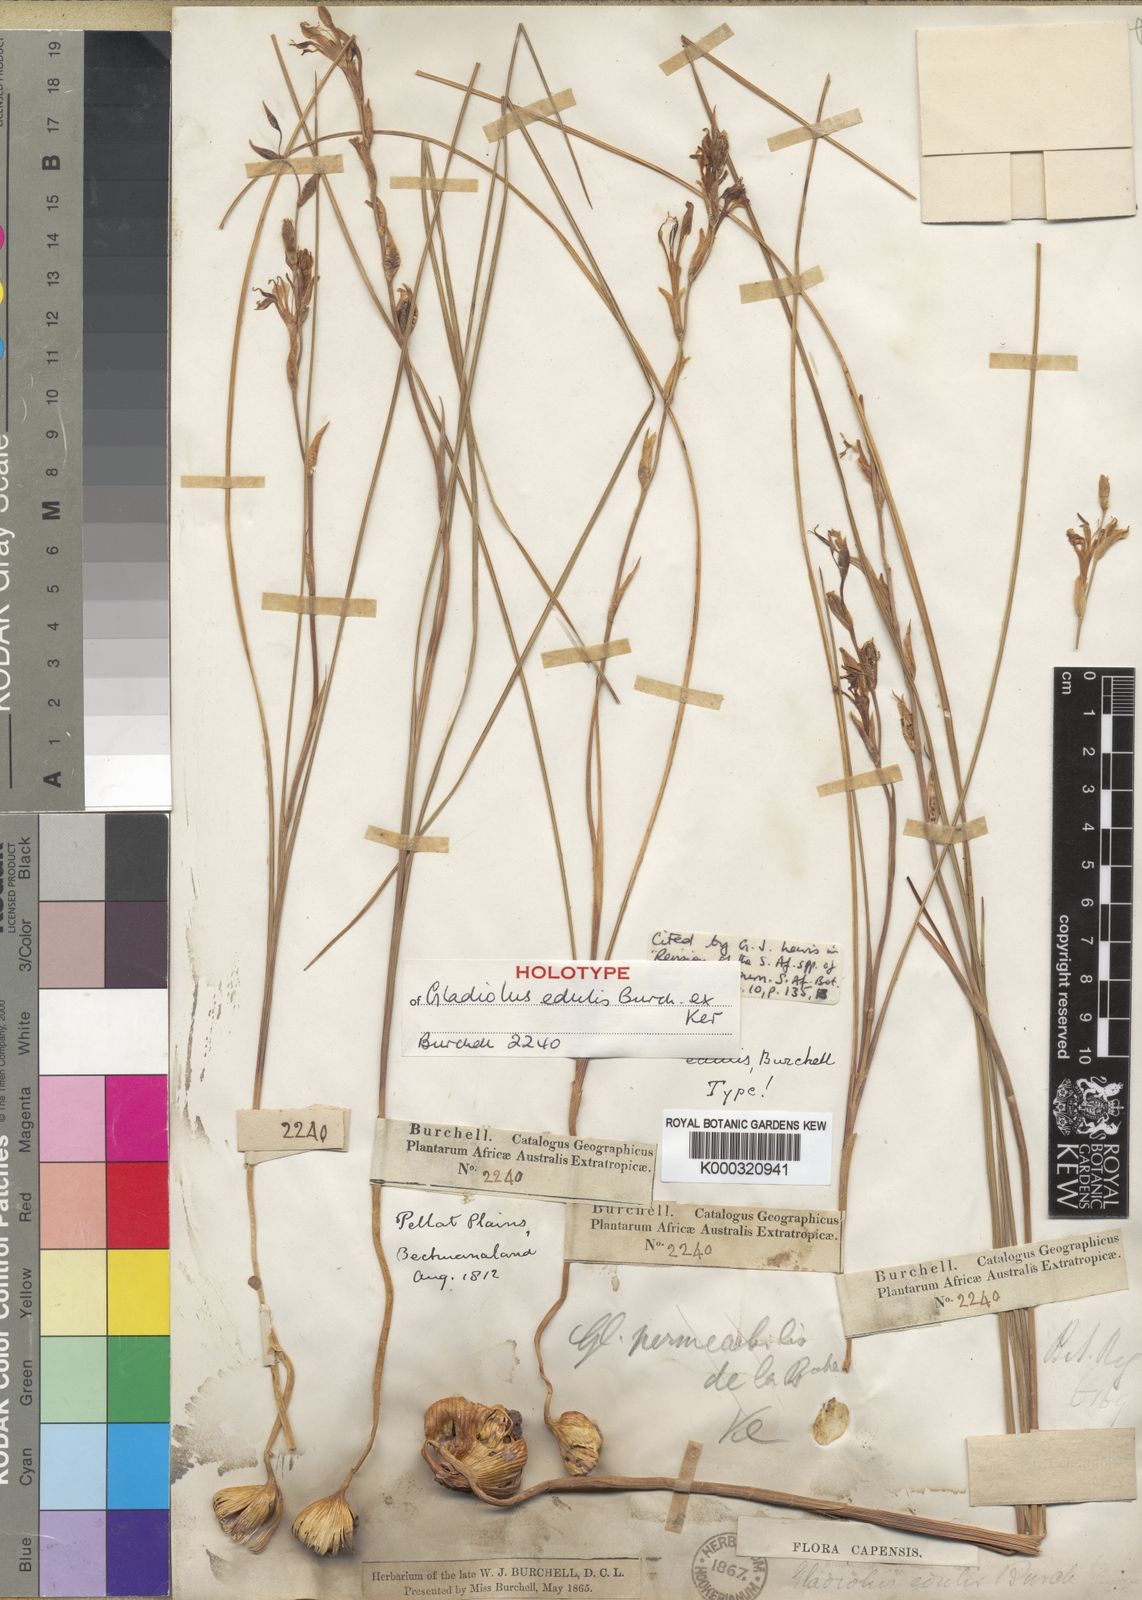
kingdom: Plantae
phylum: Tracheophyta
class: Liliopsida
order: Asparagales
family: Iridaceae
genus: Gladiolus
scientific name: Gladiolus permeabilis
